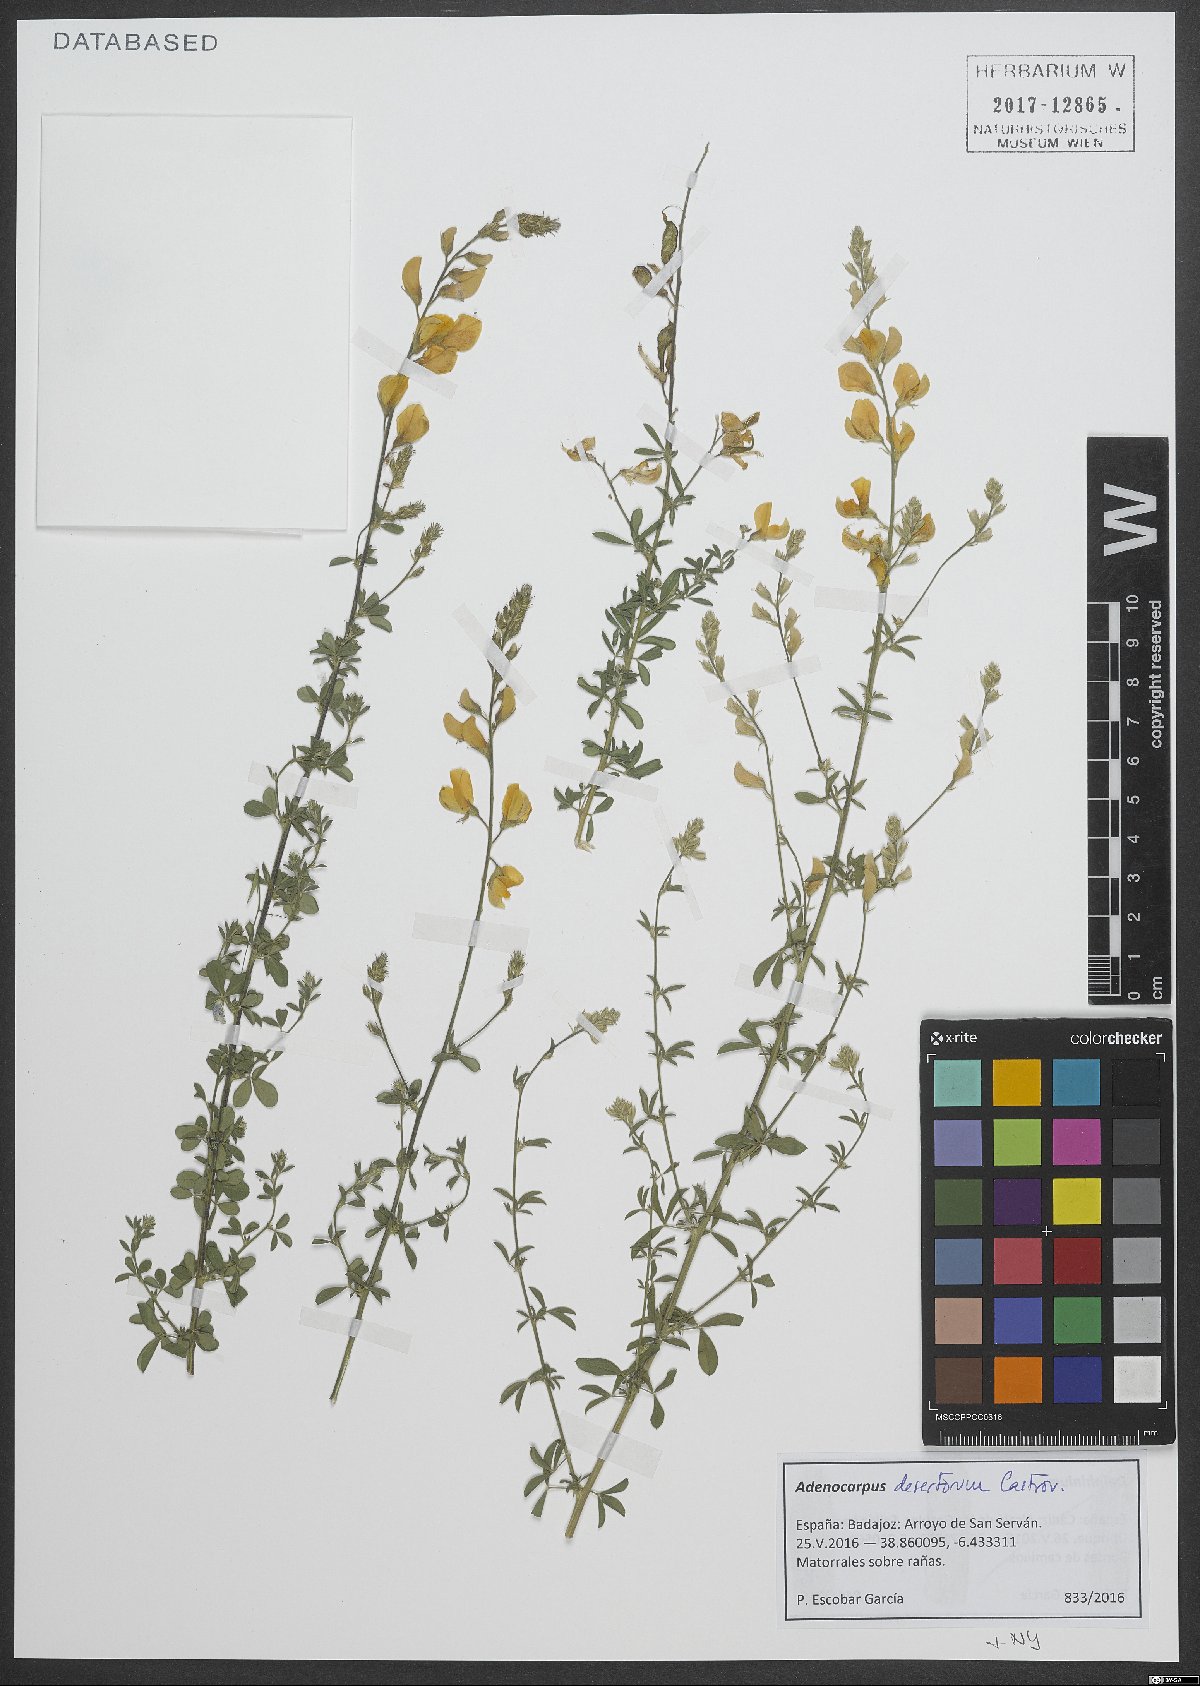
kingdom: Plantae
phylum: Tracheophyta
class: Magnoliopsida
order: Fabales
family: Fabaceae
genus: Adenocarpus
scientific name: Adenocarpus desertorum
